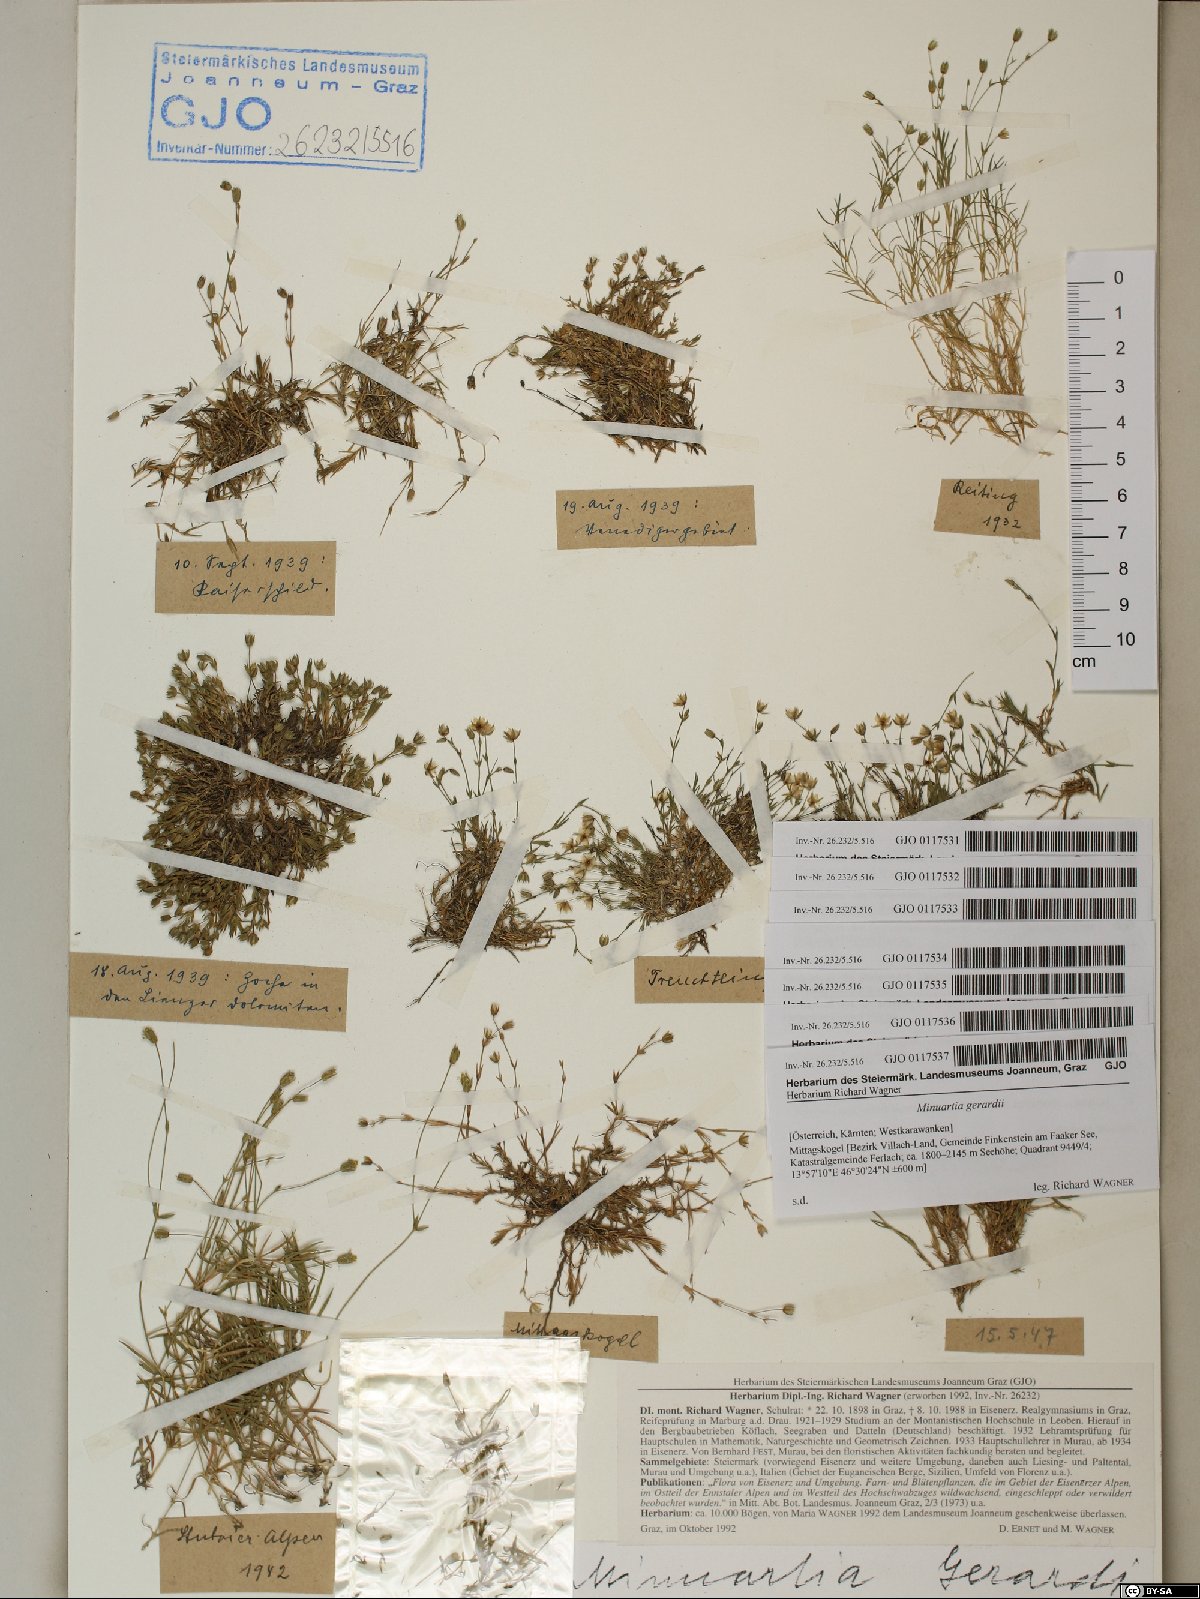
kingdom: Plantae
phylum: Tracheophyta
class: Magnoliopsida
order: Caryophyllales
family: Caryophyllaceae
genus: Sabulina
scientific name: Sabulina verna
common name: Spring sandwort
